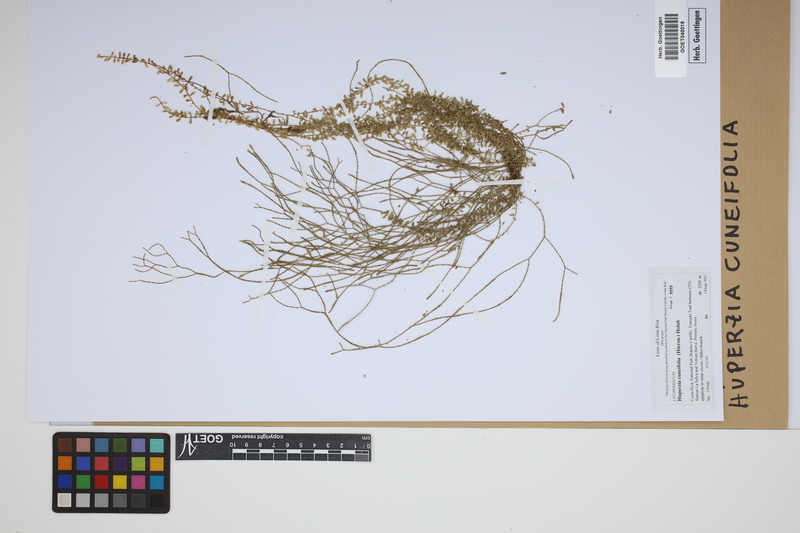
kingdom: Plantae
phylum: Tracheophyta
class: Lycopodiopsida
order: Lycopodiales
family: Lycopodiaceae
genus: Phlegmariurus
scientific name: Phlegmariurus cuneifolius
